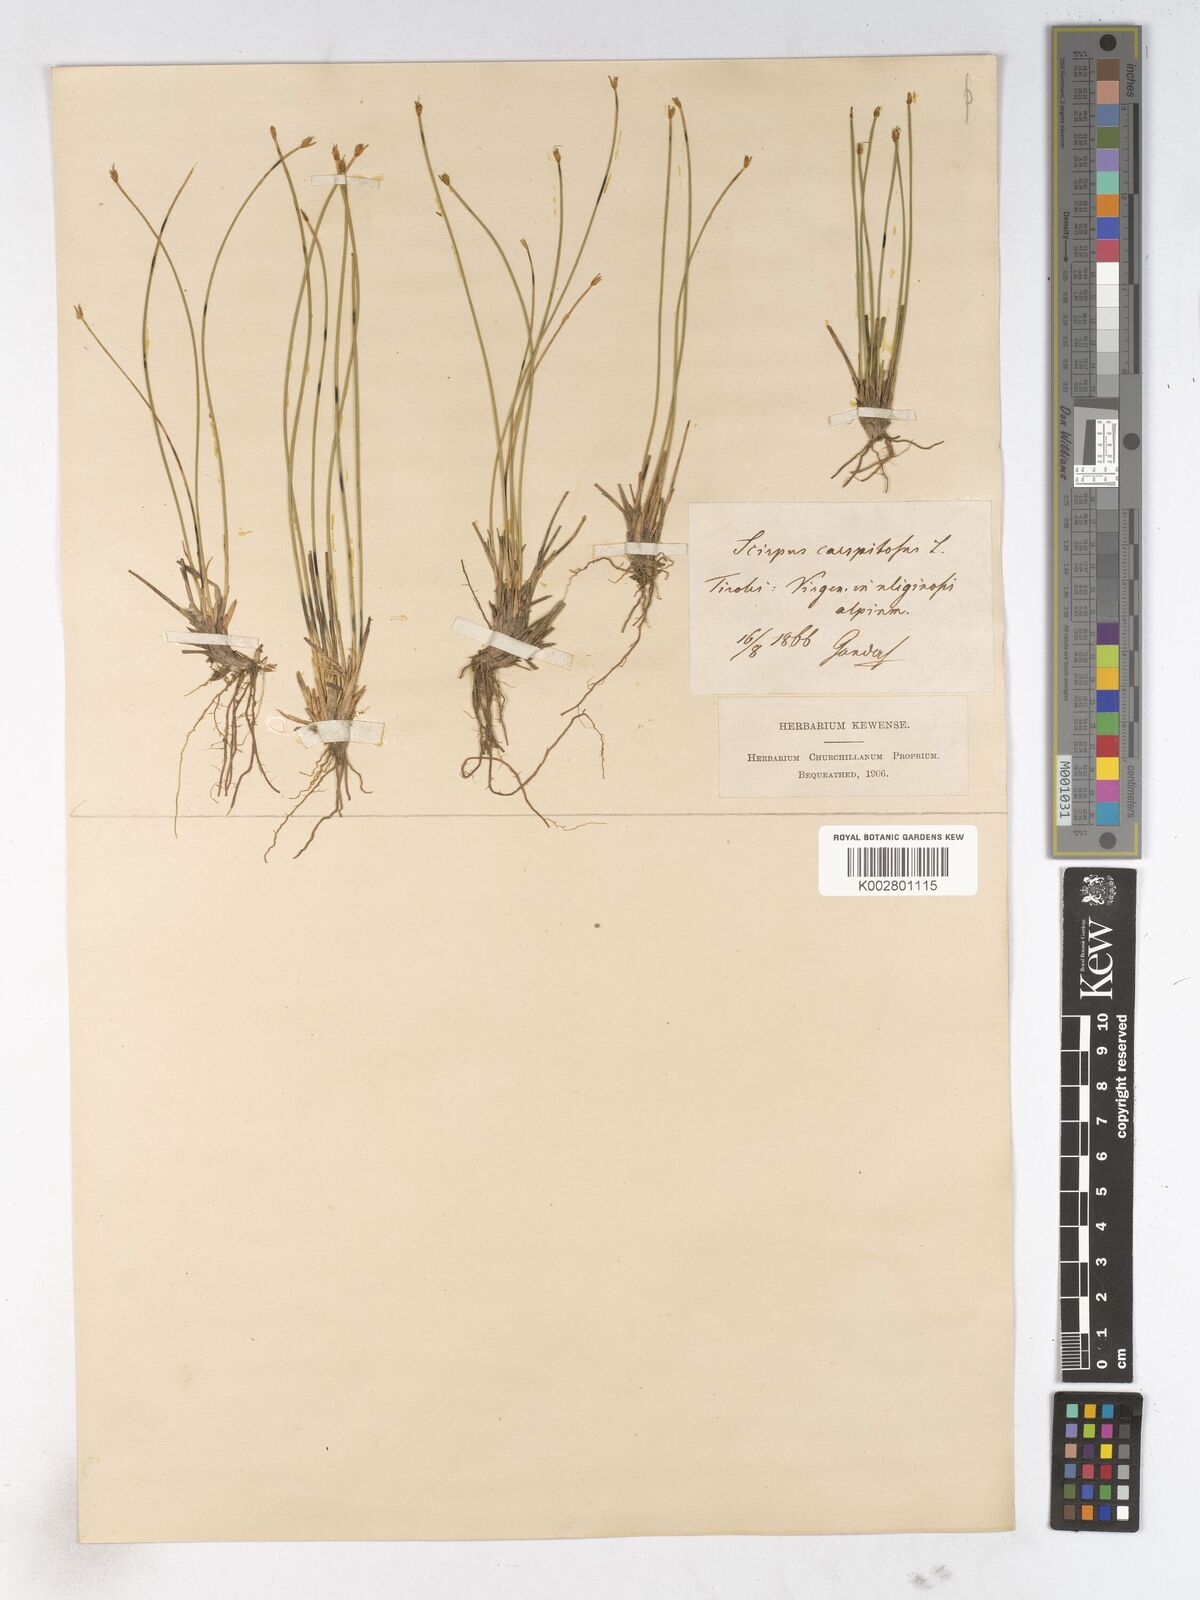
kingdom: Plantae
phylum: Tracheophyta
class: Liliopsida
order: Poales
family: Cyperaceae
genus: Trichophorum
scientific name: Trichophorum cespitosum
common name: Cespitose bulrush
